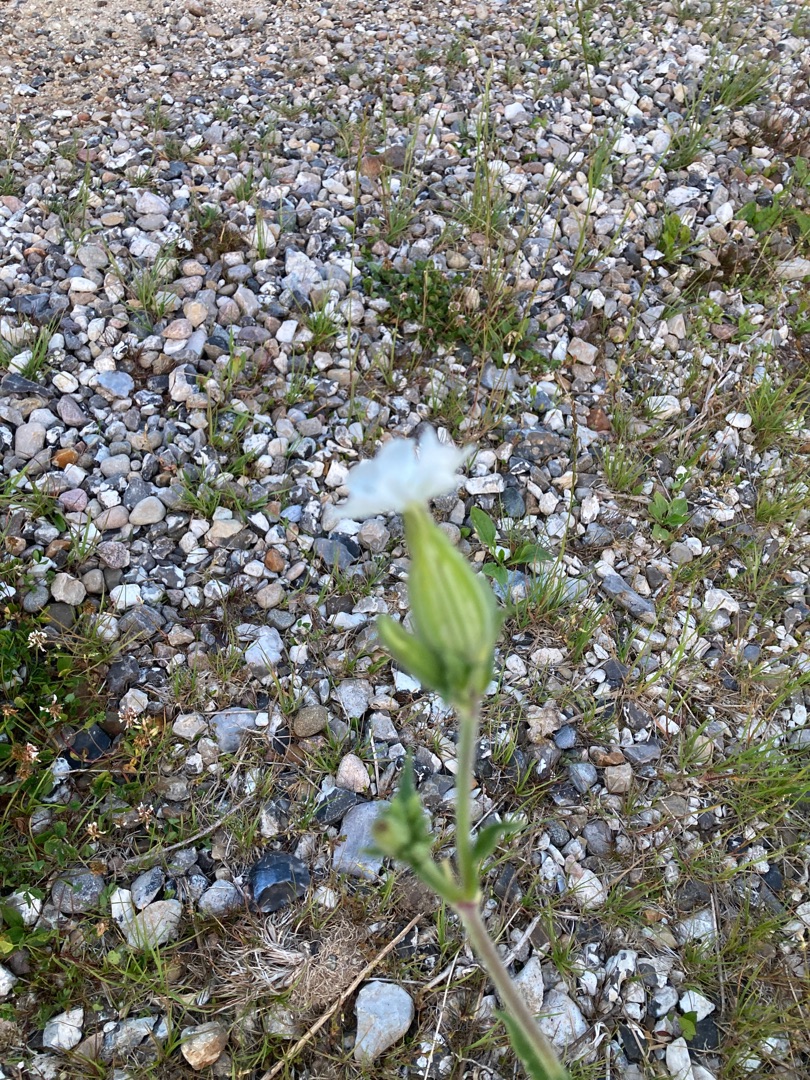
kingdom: Plantae
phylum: Tracheophyta
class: Magnoliopsida
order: Caryophyllales
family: Caryophyllaceae
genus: Silene
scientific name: Silene latifolia
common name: Aftenpragtstjerne
